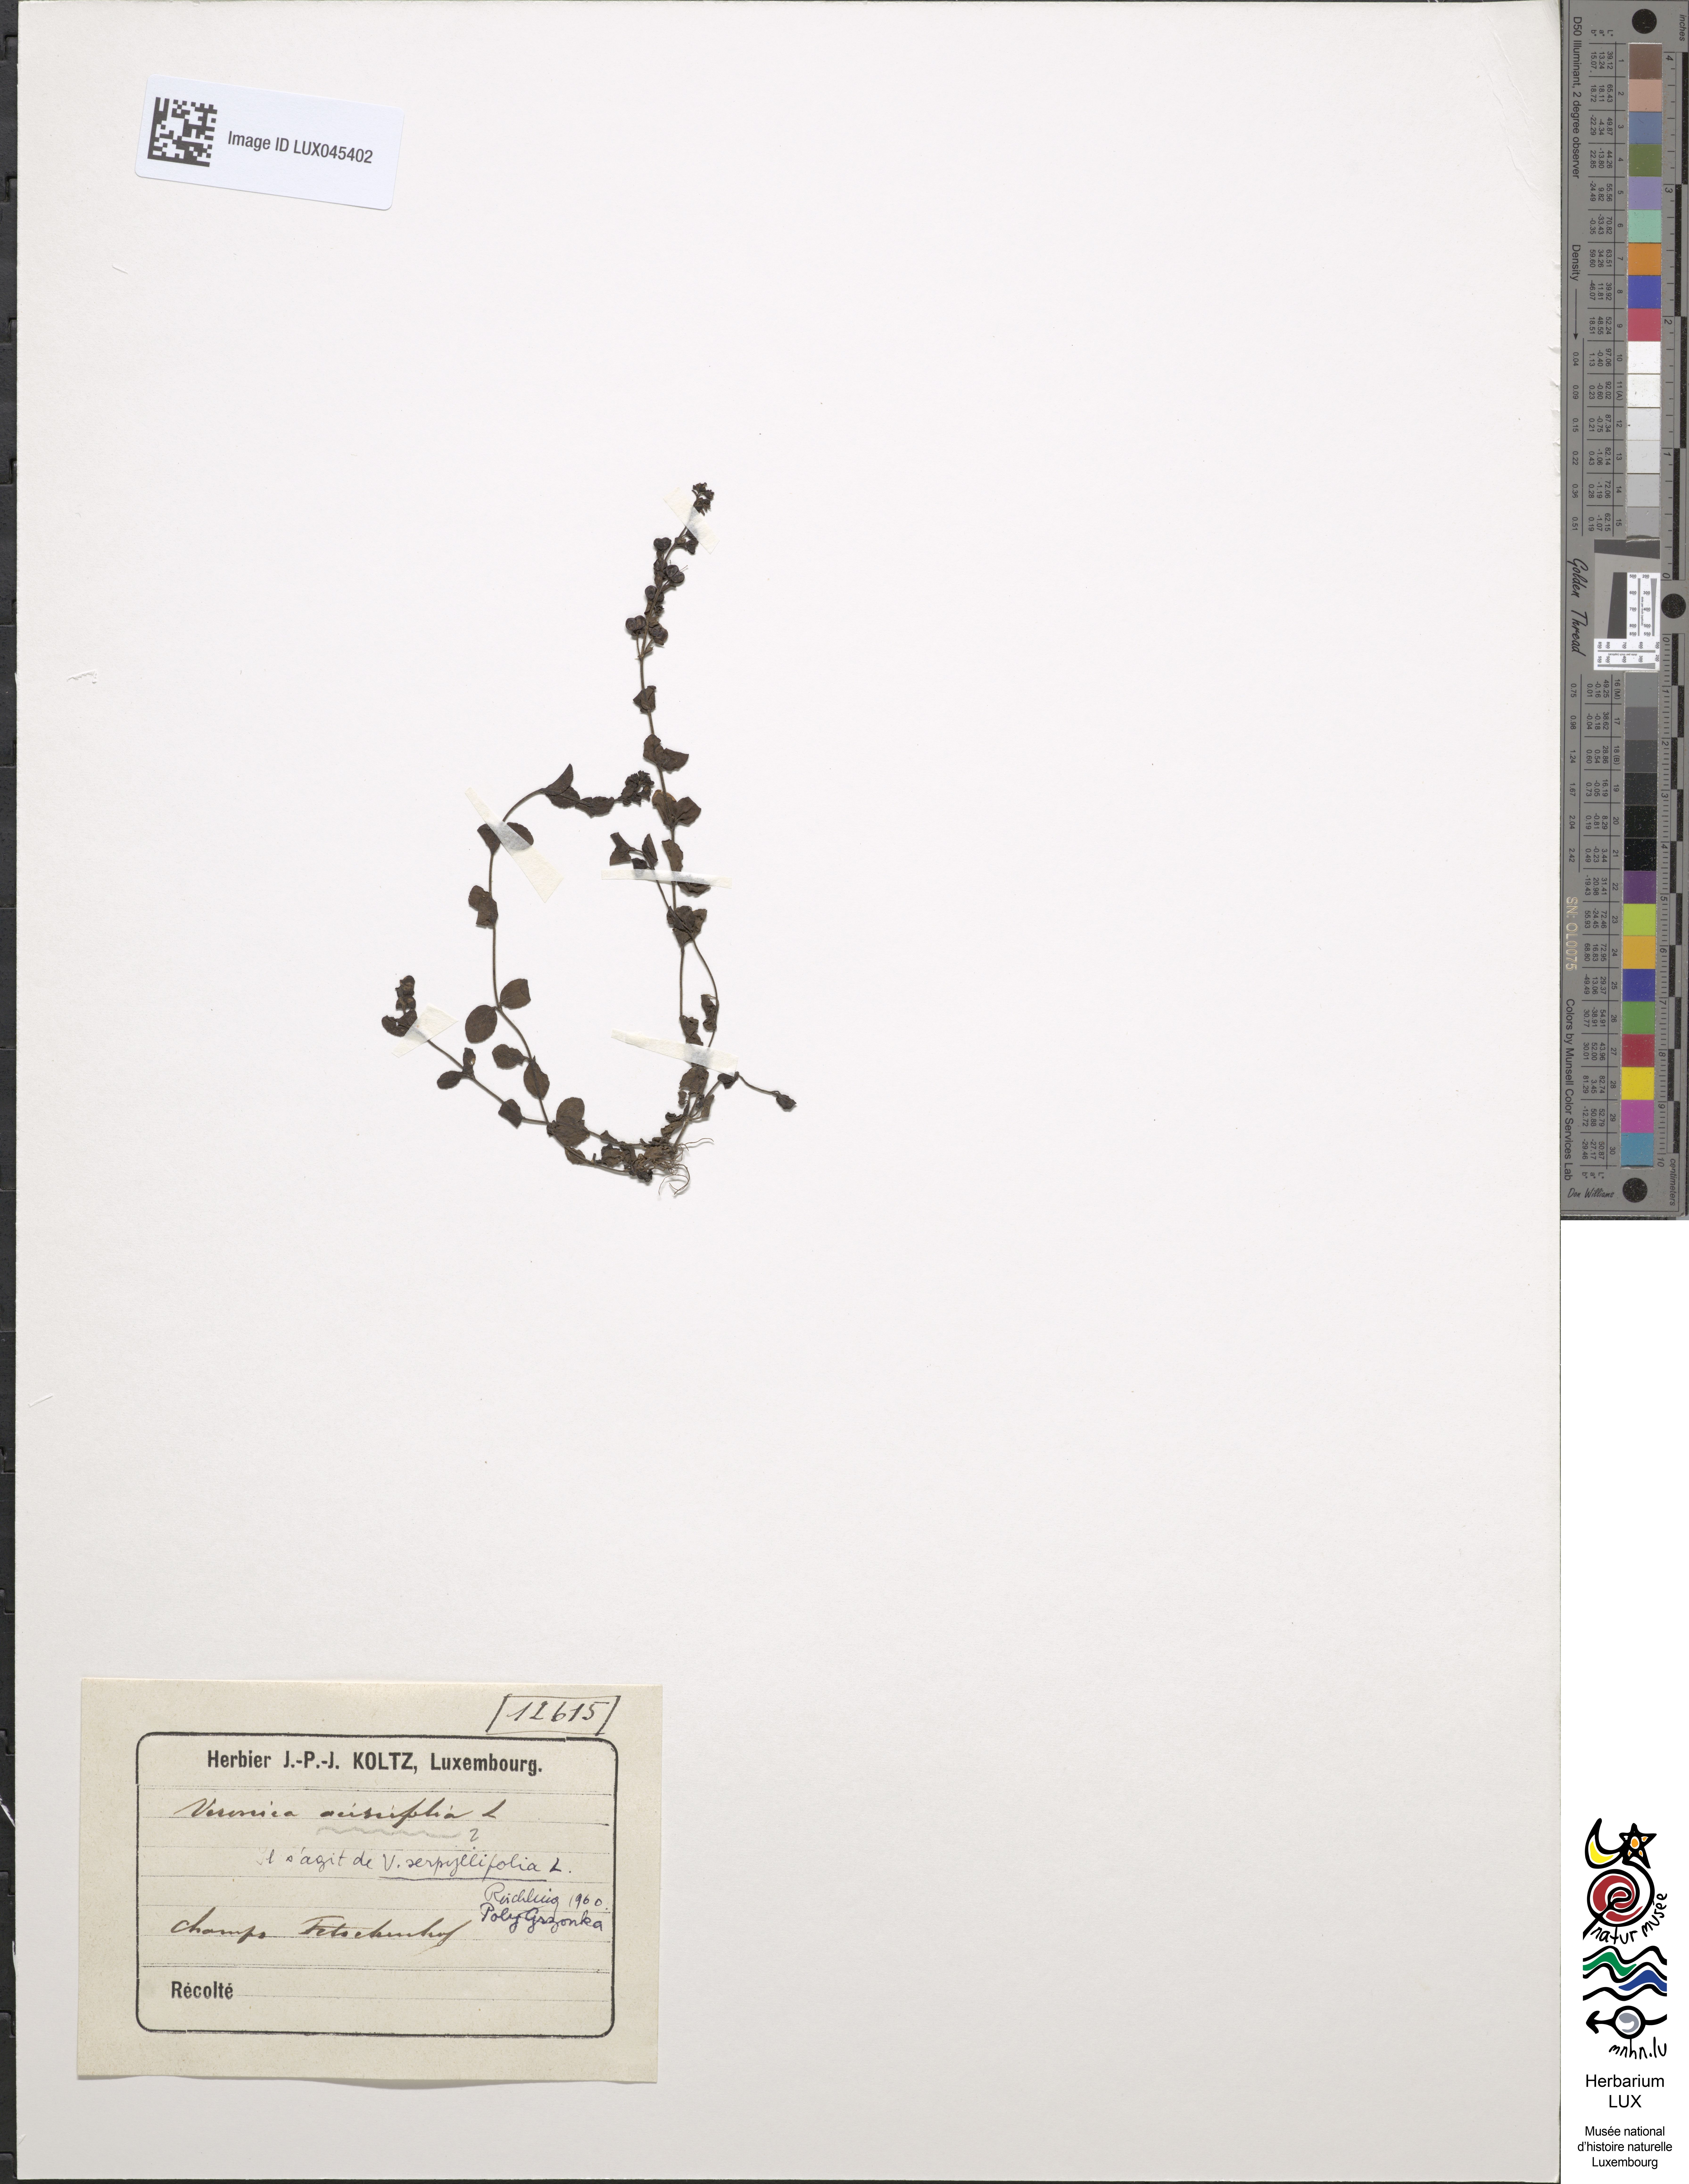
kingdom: Plantae
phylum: Tracheophyta
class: Magnoliopsida
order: Lamiales
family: Plantaginaceae
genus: Veronica
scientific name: Veronica serpyllifolia
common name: Thyme-leaved speedwell
